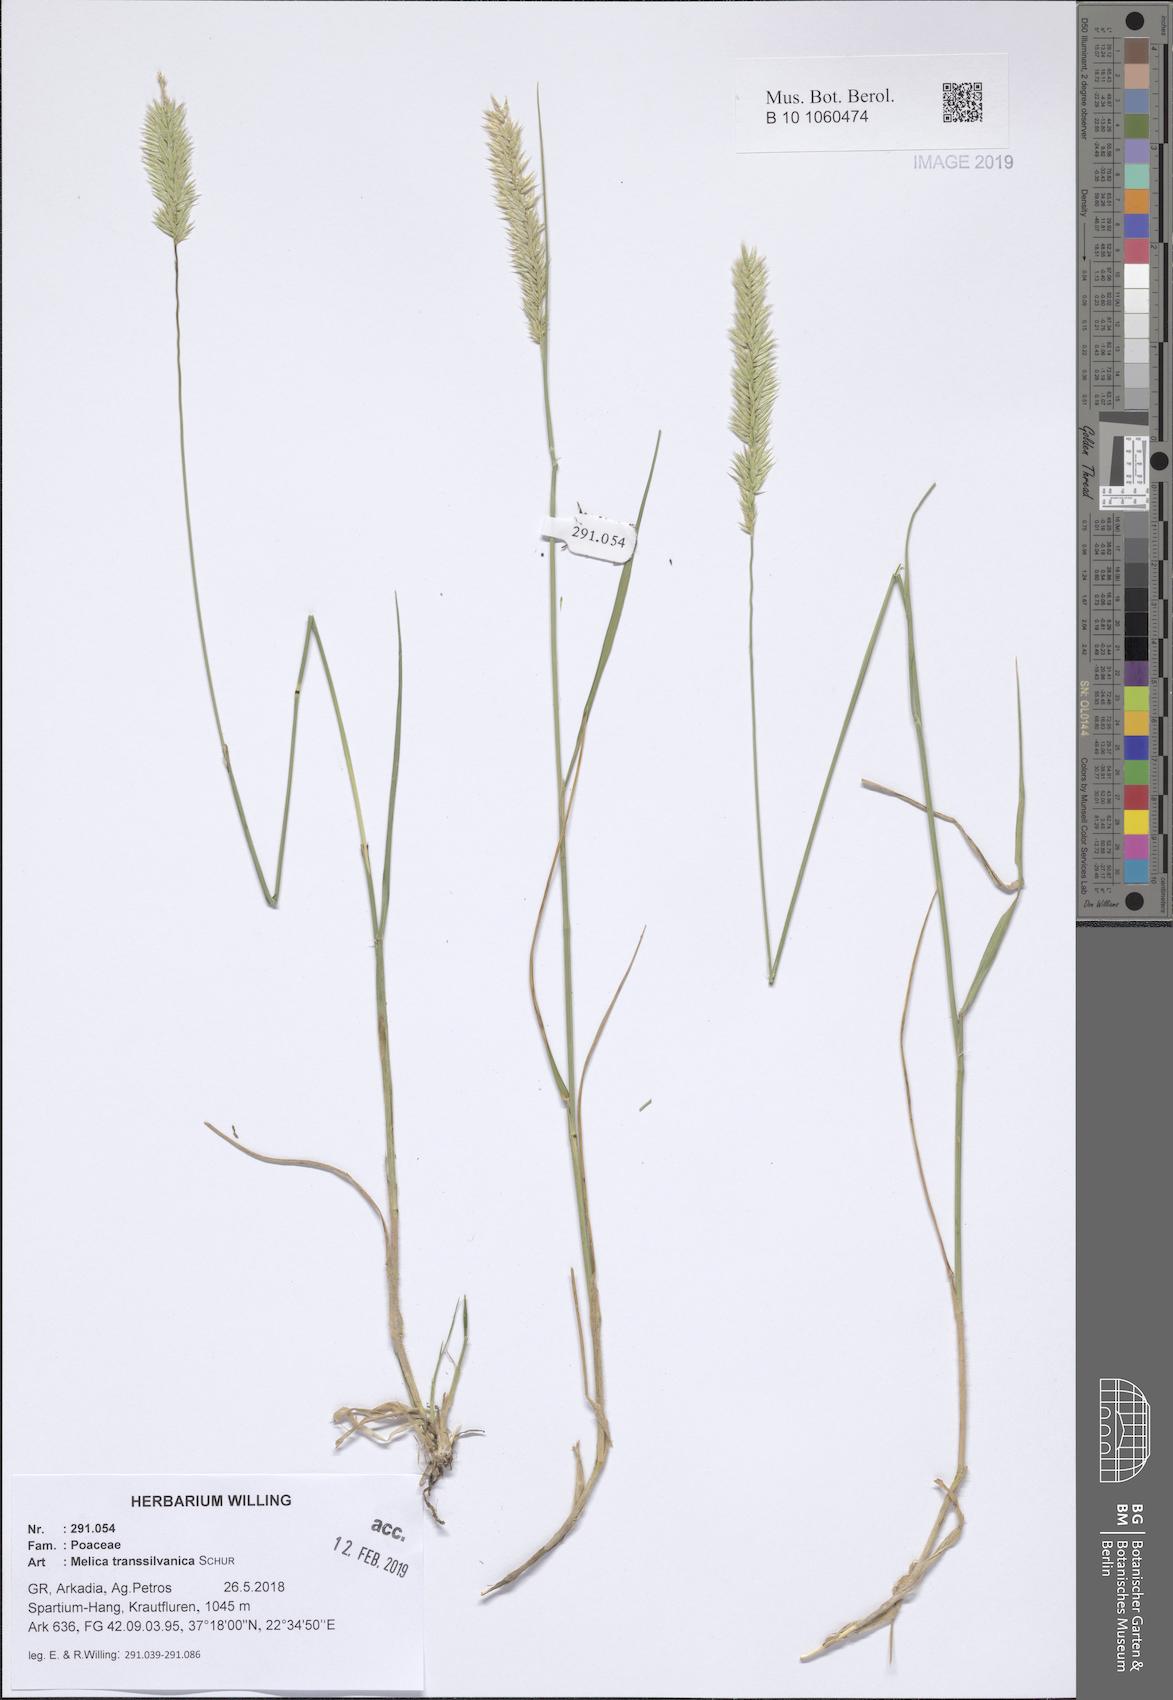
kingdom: Plantae
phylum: Tracheophyta
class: Liliopsida
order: Poales
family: Poaceae
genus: Melica
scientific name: Melica transsilvanica
